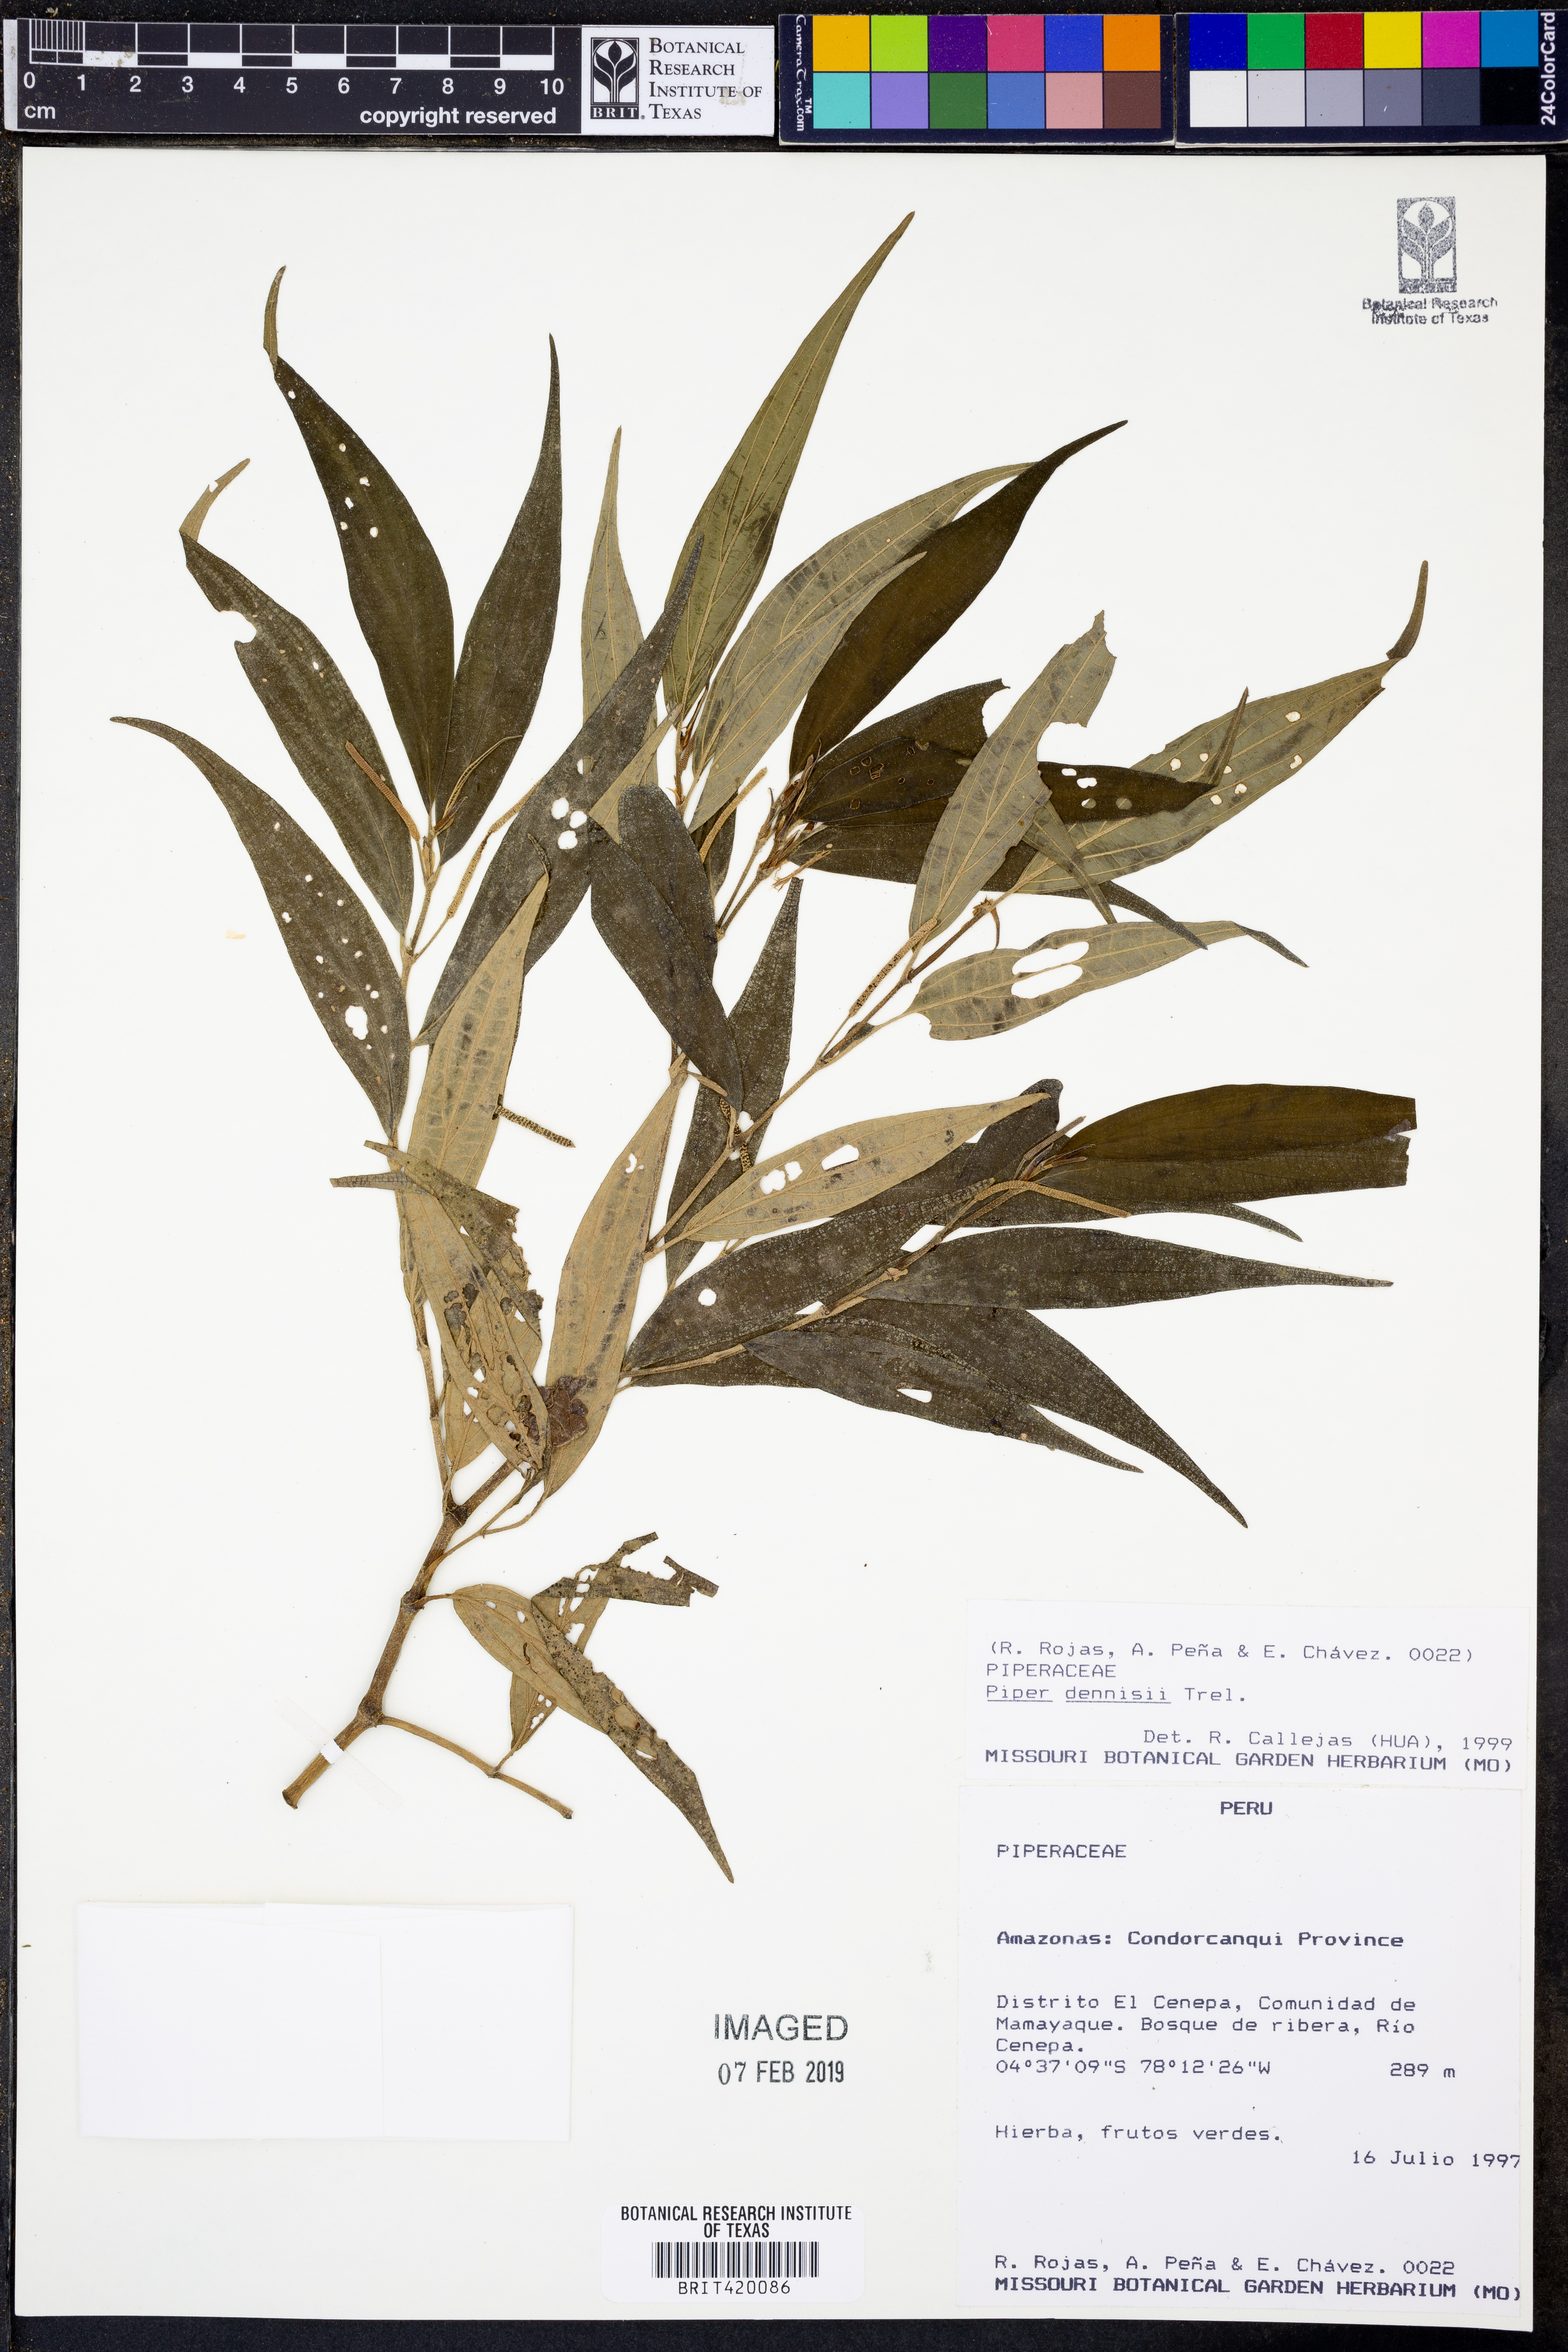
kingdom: Plantae
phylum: Tracheophyta
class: Magnoliopsida
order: Piperales
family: Piperaceae
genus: Piper
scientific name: Piper dennisii
